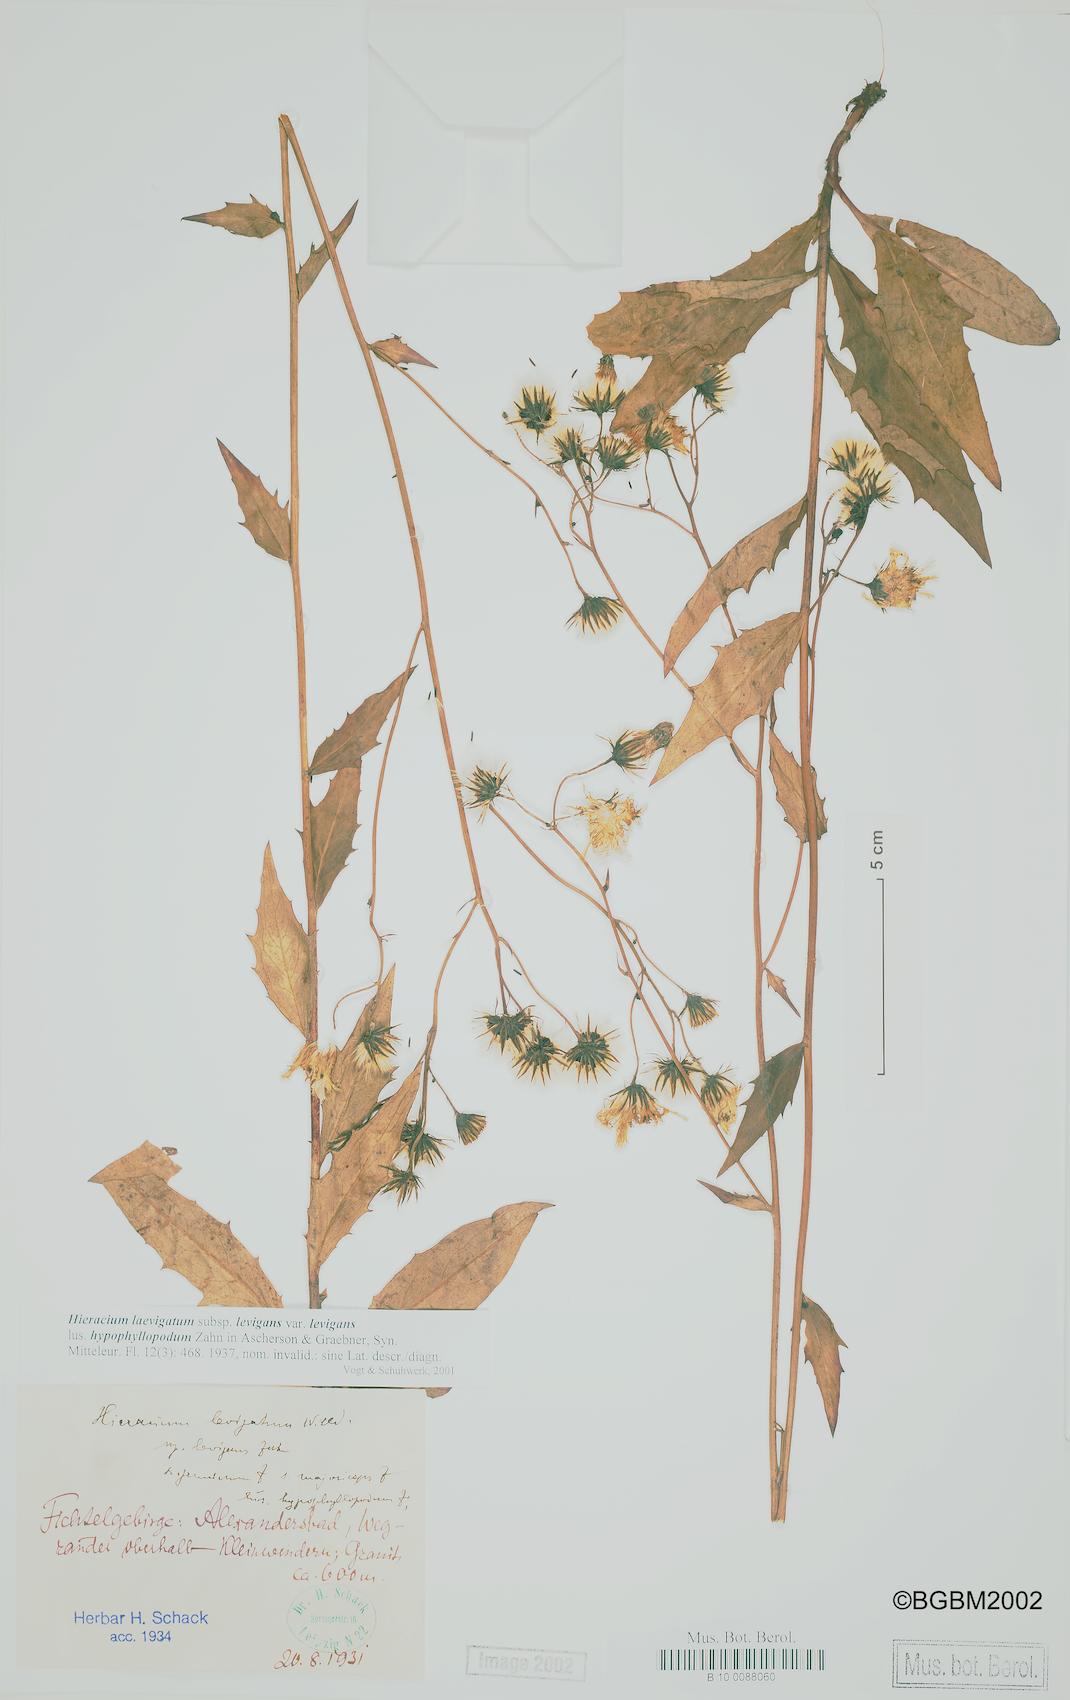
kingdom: Plantae
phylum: Tracheophyta
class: Magnoliopsida
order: Asterales
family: Asteraceae
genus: Hieracium
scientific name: Hieracium laevigatum
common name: Smooth hawkweed
